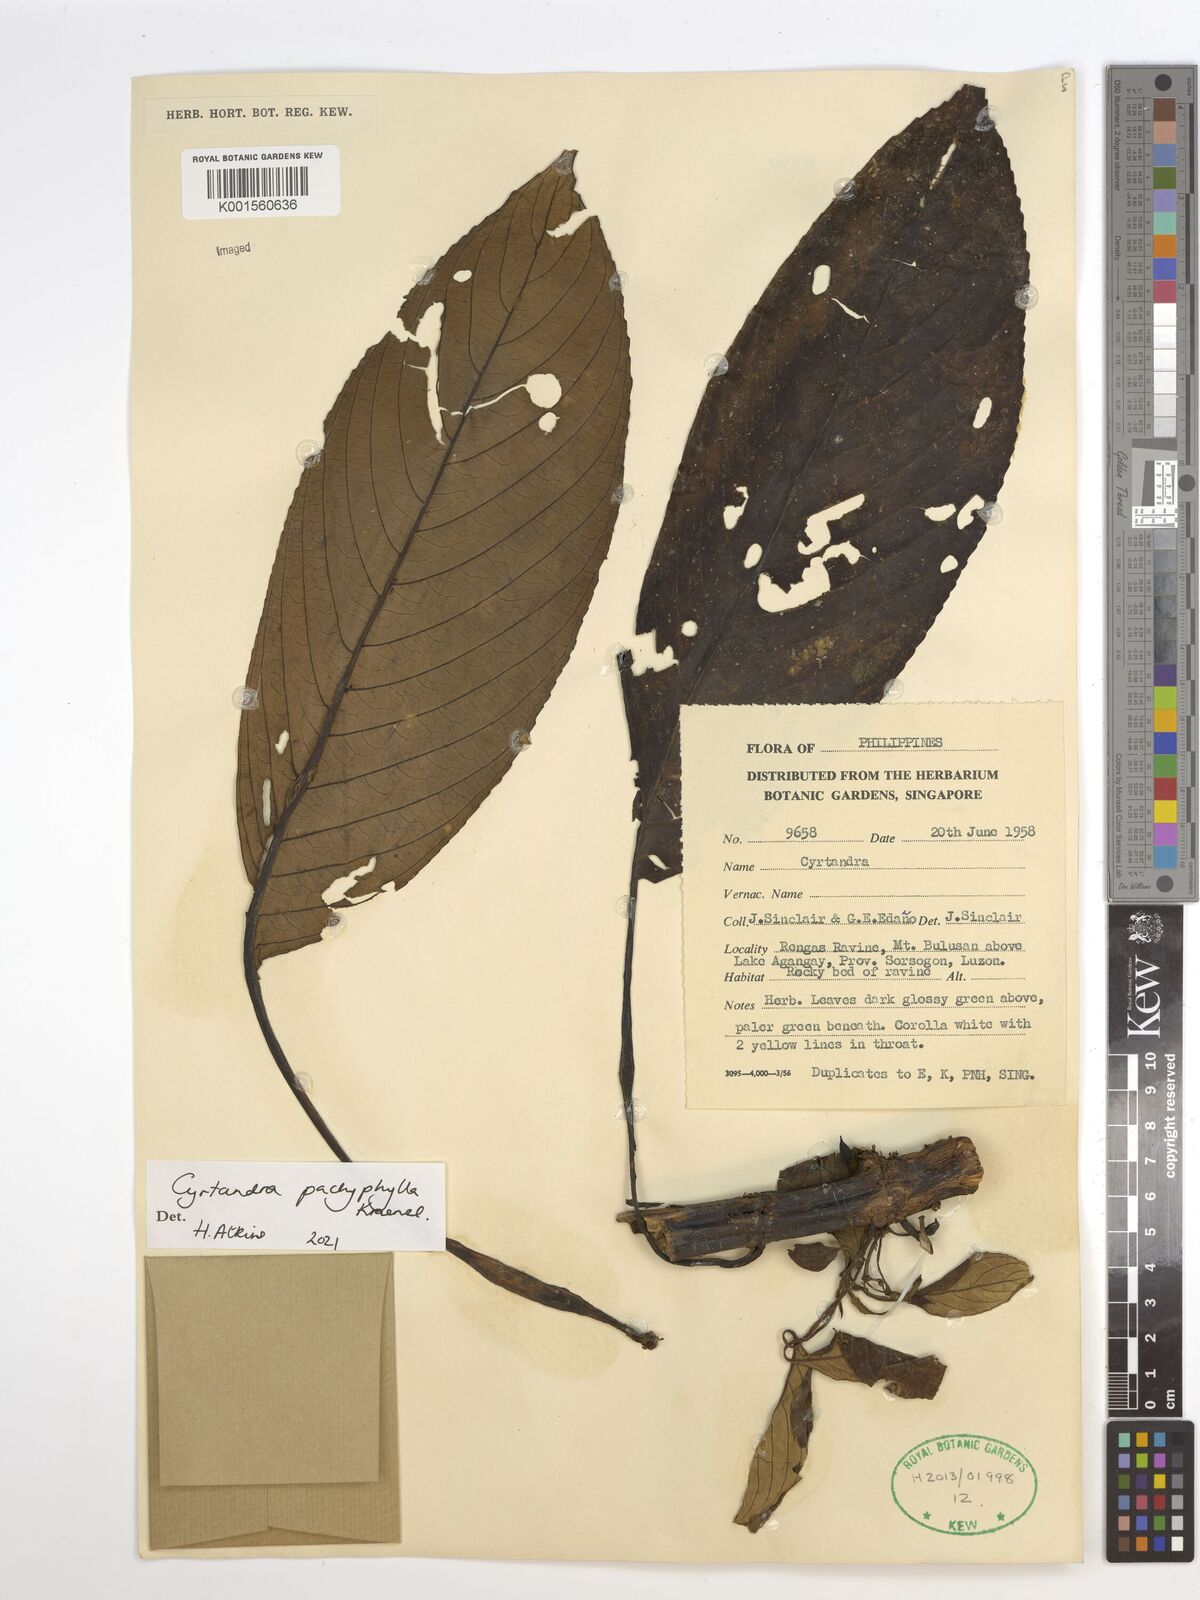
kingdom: Plantae
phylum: Tracheophyta
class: Magnoliopsida
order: Lamiales
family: Gesneriaceae
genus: Cyrtandra
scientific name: Cyrtandra pachyphylla
